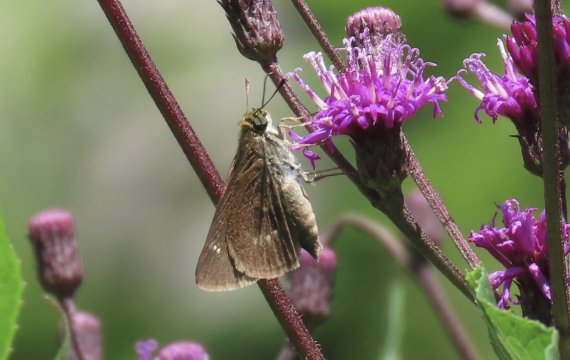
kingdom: Animalia
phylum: Arthropoda
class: Insecta
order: Lepidoptera
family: Hesperiidae
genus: Vernia
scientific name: Vernia verna
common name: Little Glassywing
